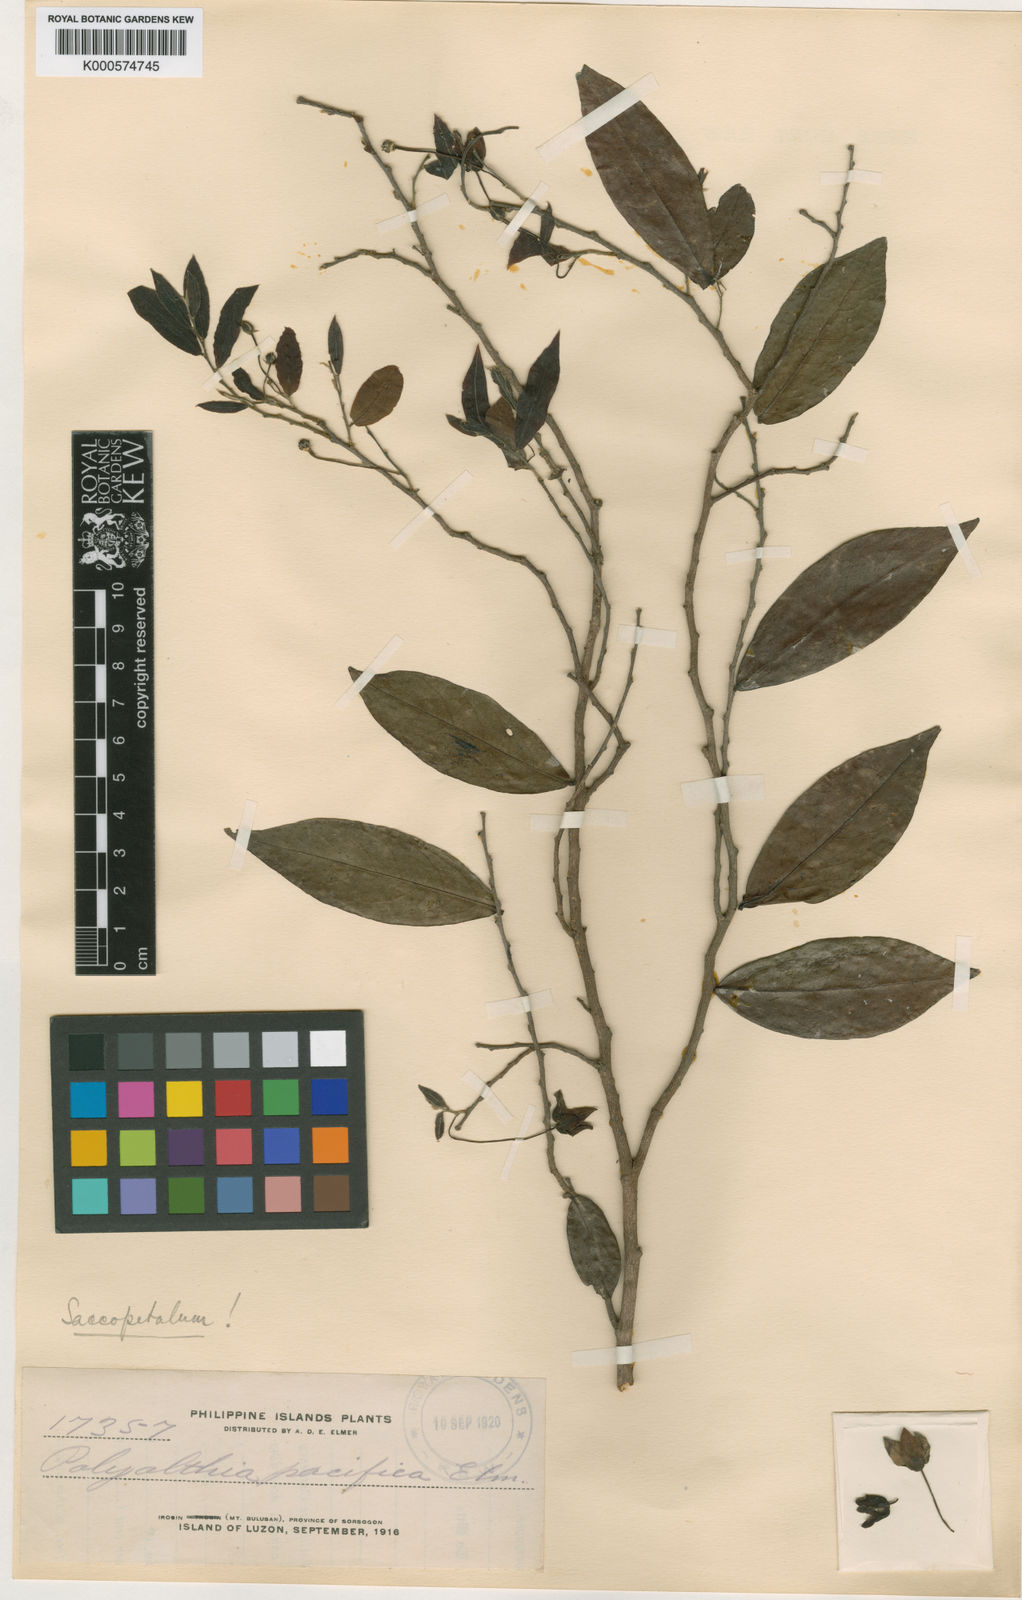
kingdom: Plantae
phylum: Tracheophyta
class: Magnoliopsida
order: Magnoliales
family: Annonaceae
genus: Miliusa
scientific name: Miliusa
